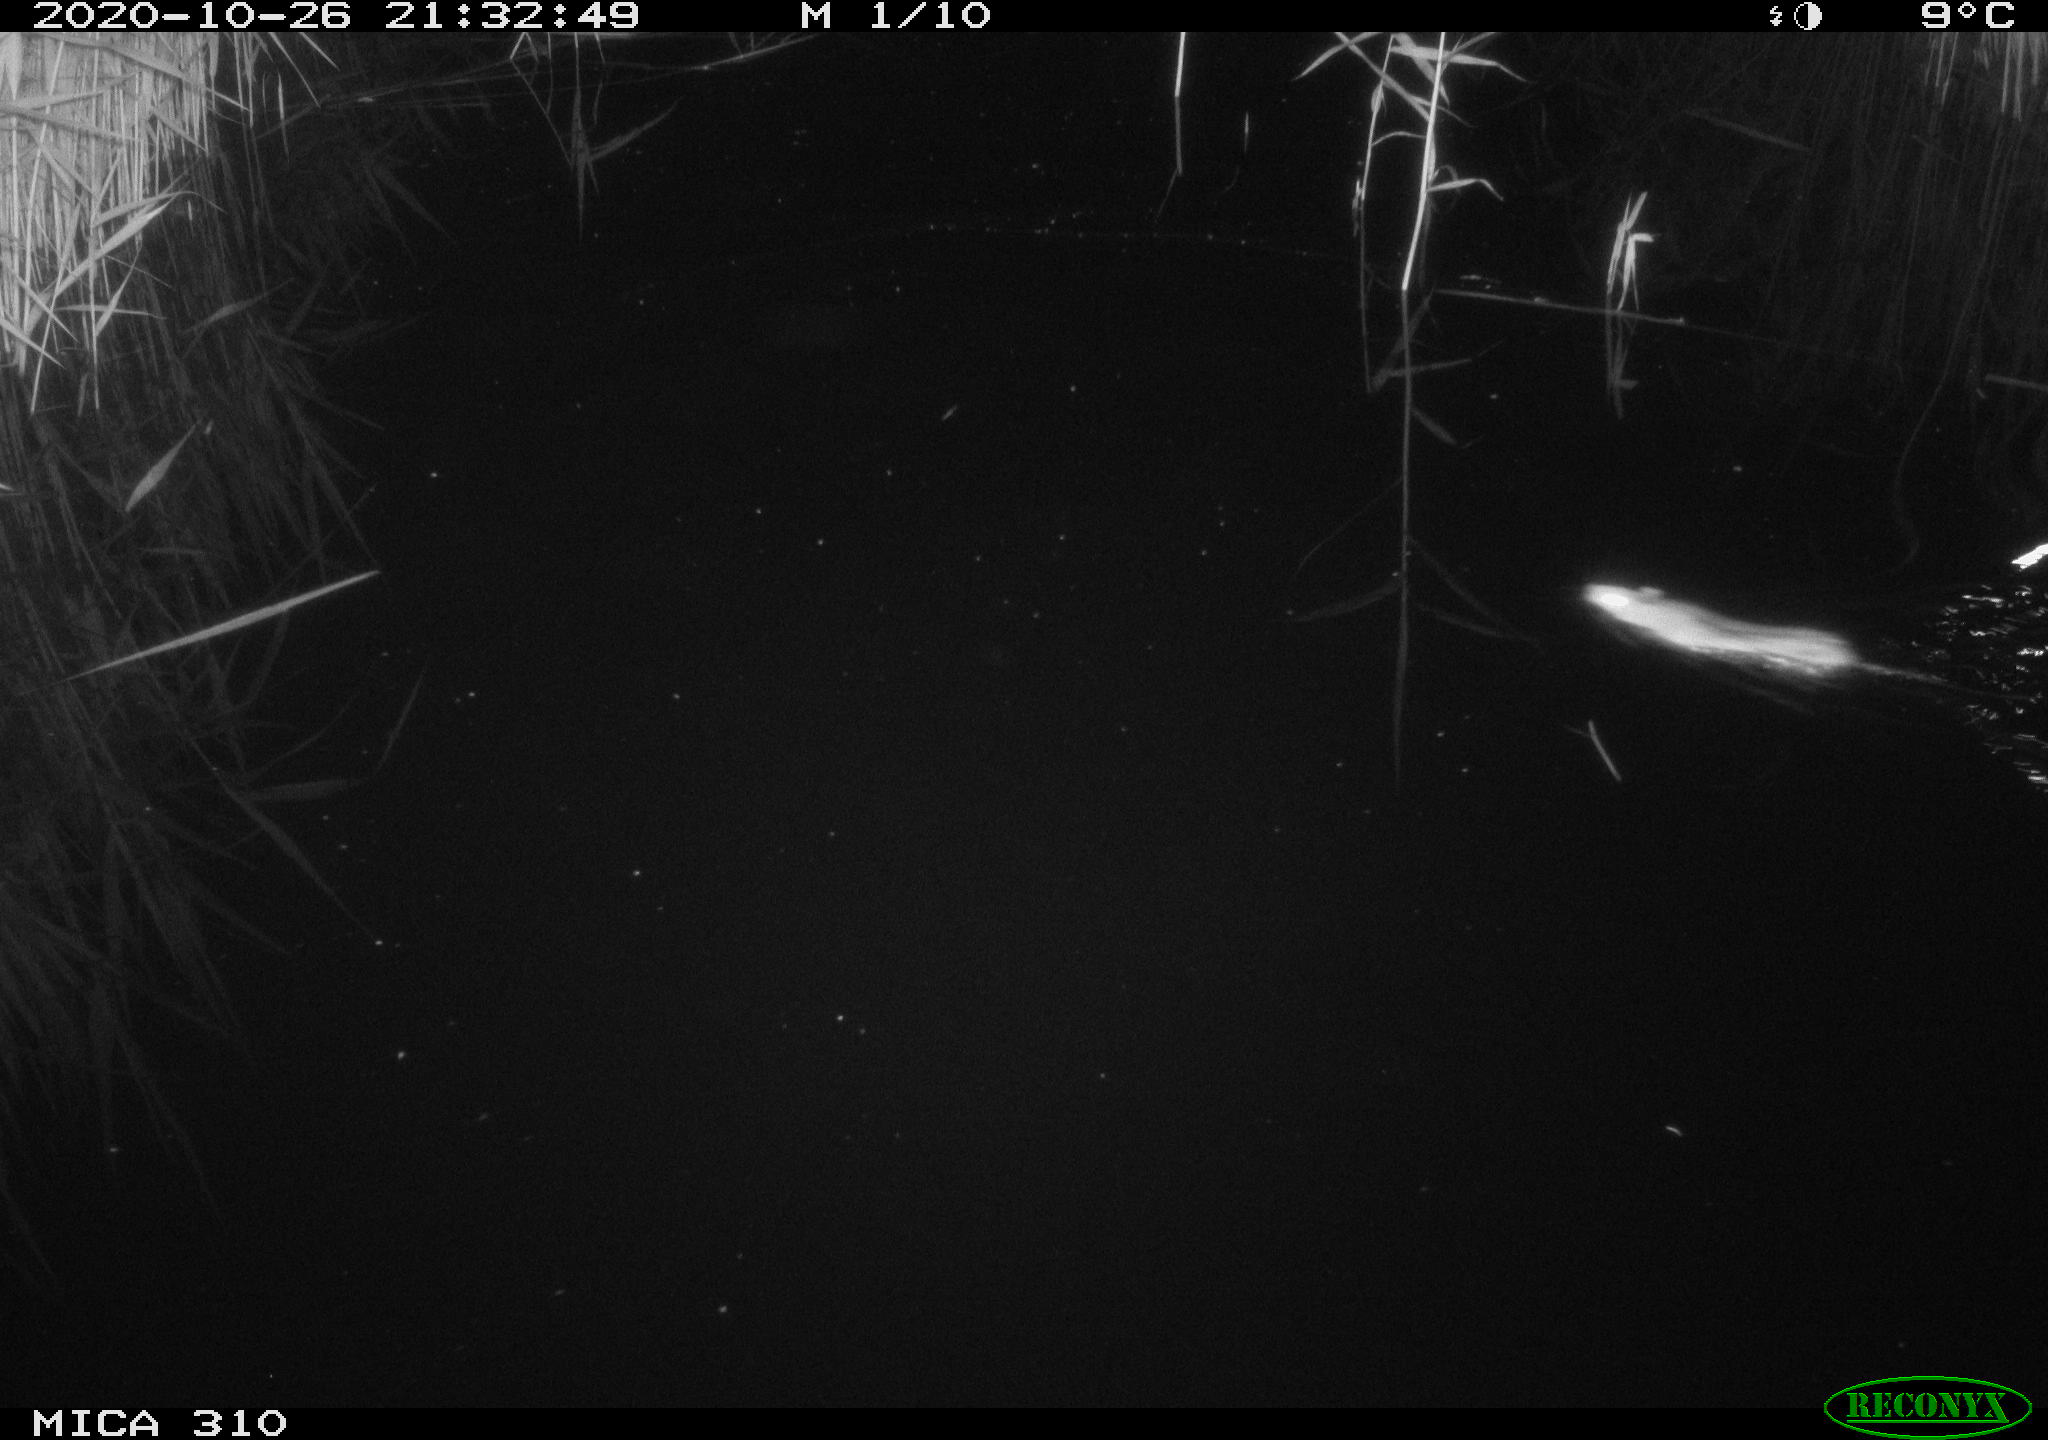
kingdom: Animalia
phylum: Chordata
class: Mammalia
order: Rodentia
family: Muridae
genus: Rattus
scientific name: Rattus norvegicus
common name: Brown rat
